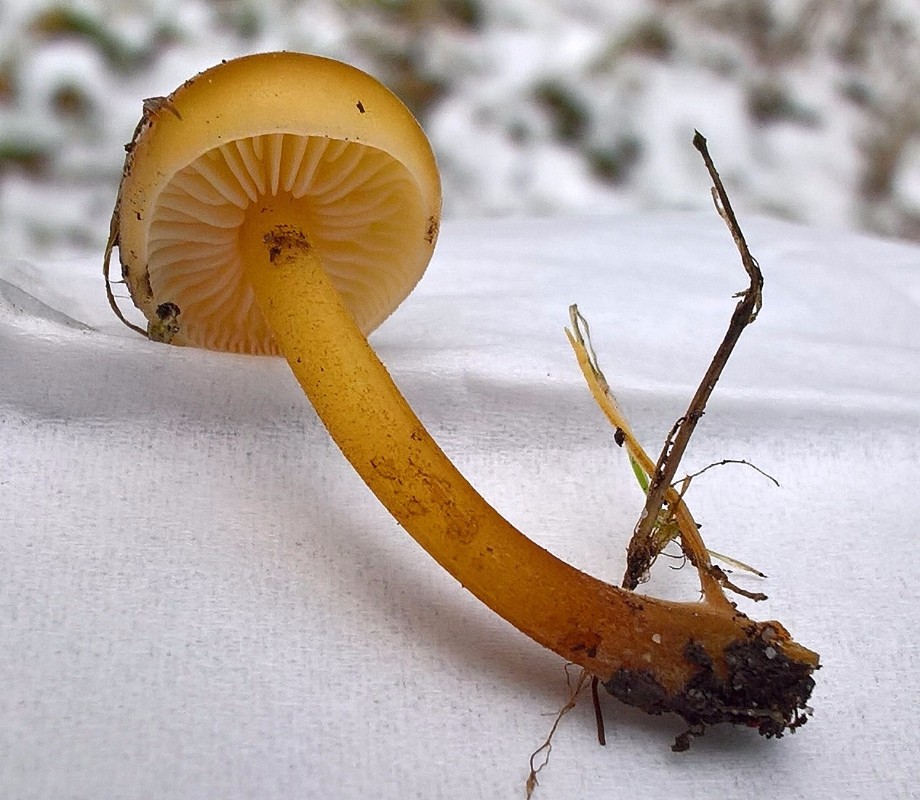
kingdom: Fungi
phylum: Basidiomycota
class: Agaricomycetes
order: Agaricales
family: Physalacriaceae
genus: Flammulina
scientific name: Flammulina velutipes
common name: gul fløjlsfod
